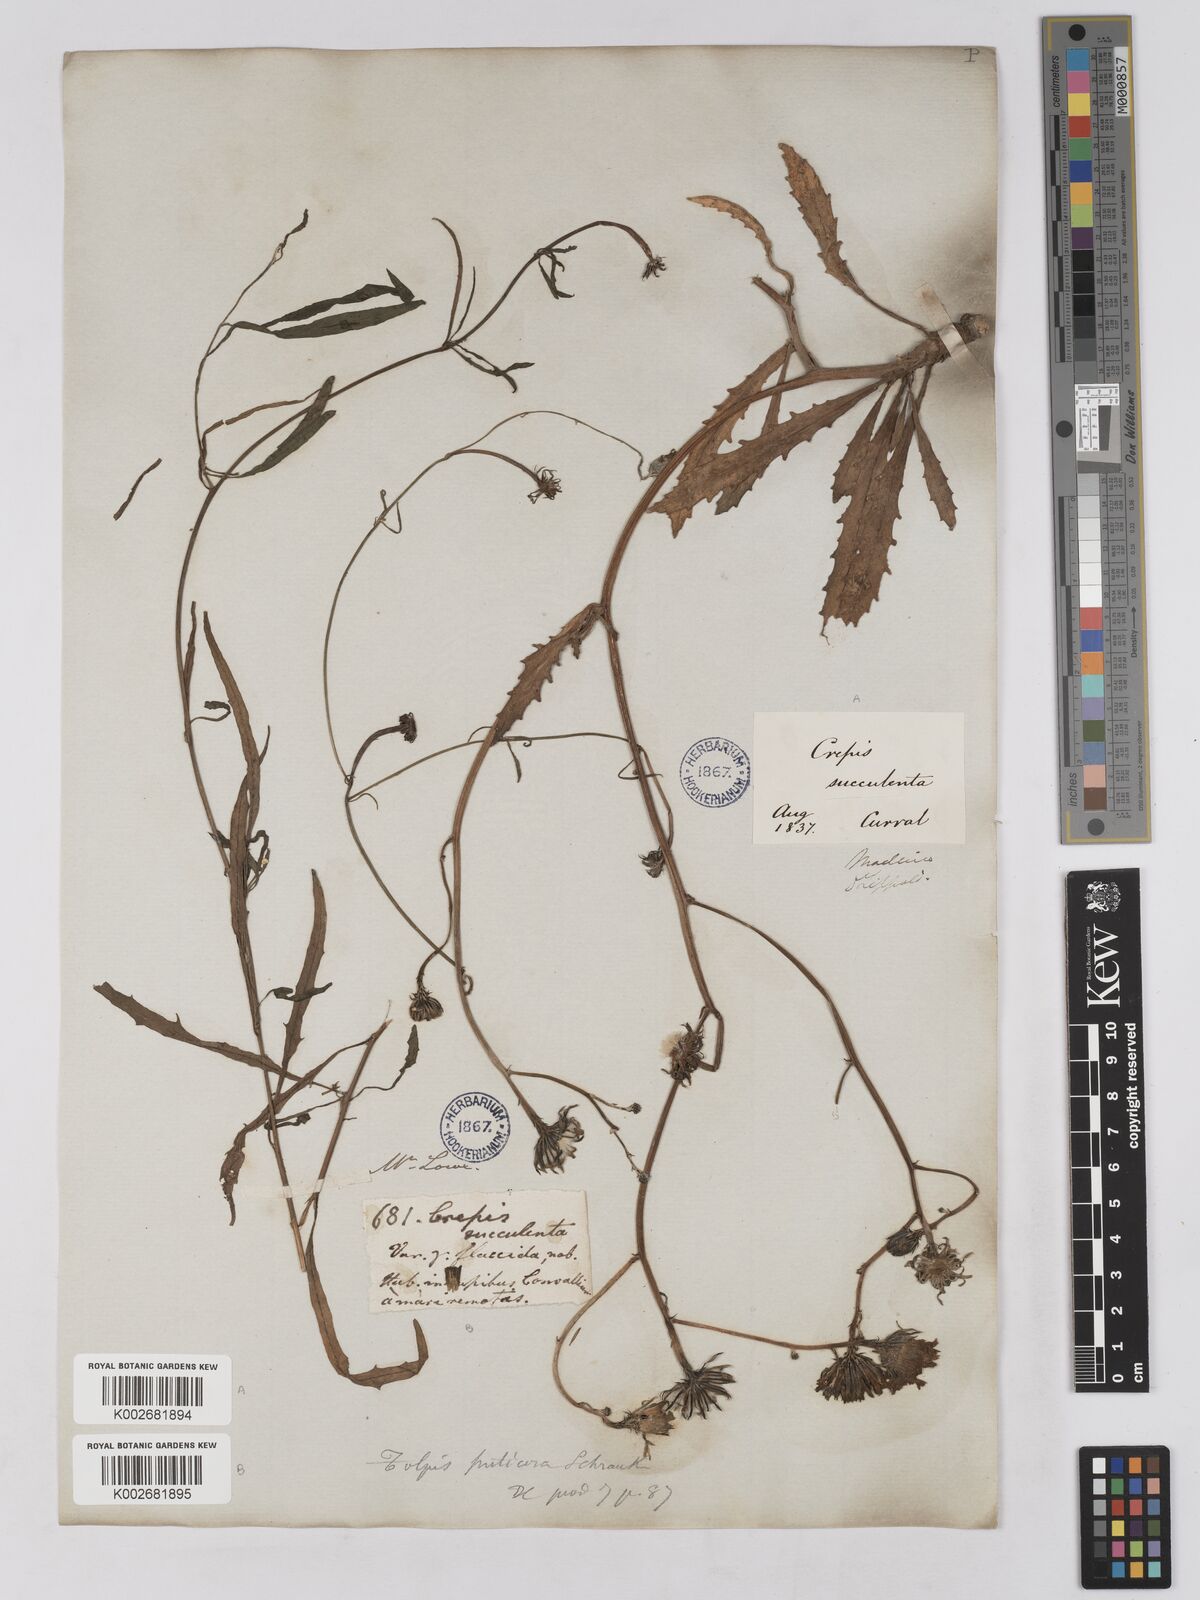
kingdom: Plantae
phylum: Tracheophyta
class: Magnoliopsida
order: Asterales
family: Asteraceae
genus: Tolpis
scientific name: Tolpis succulenta
